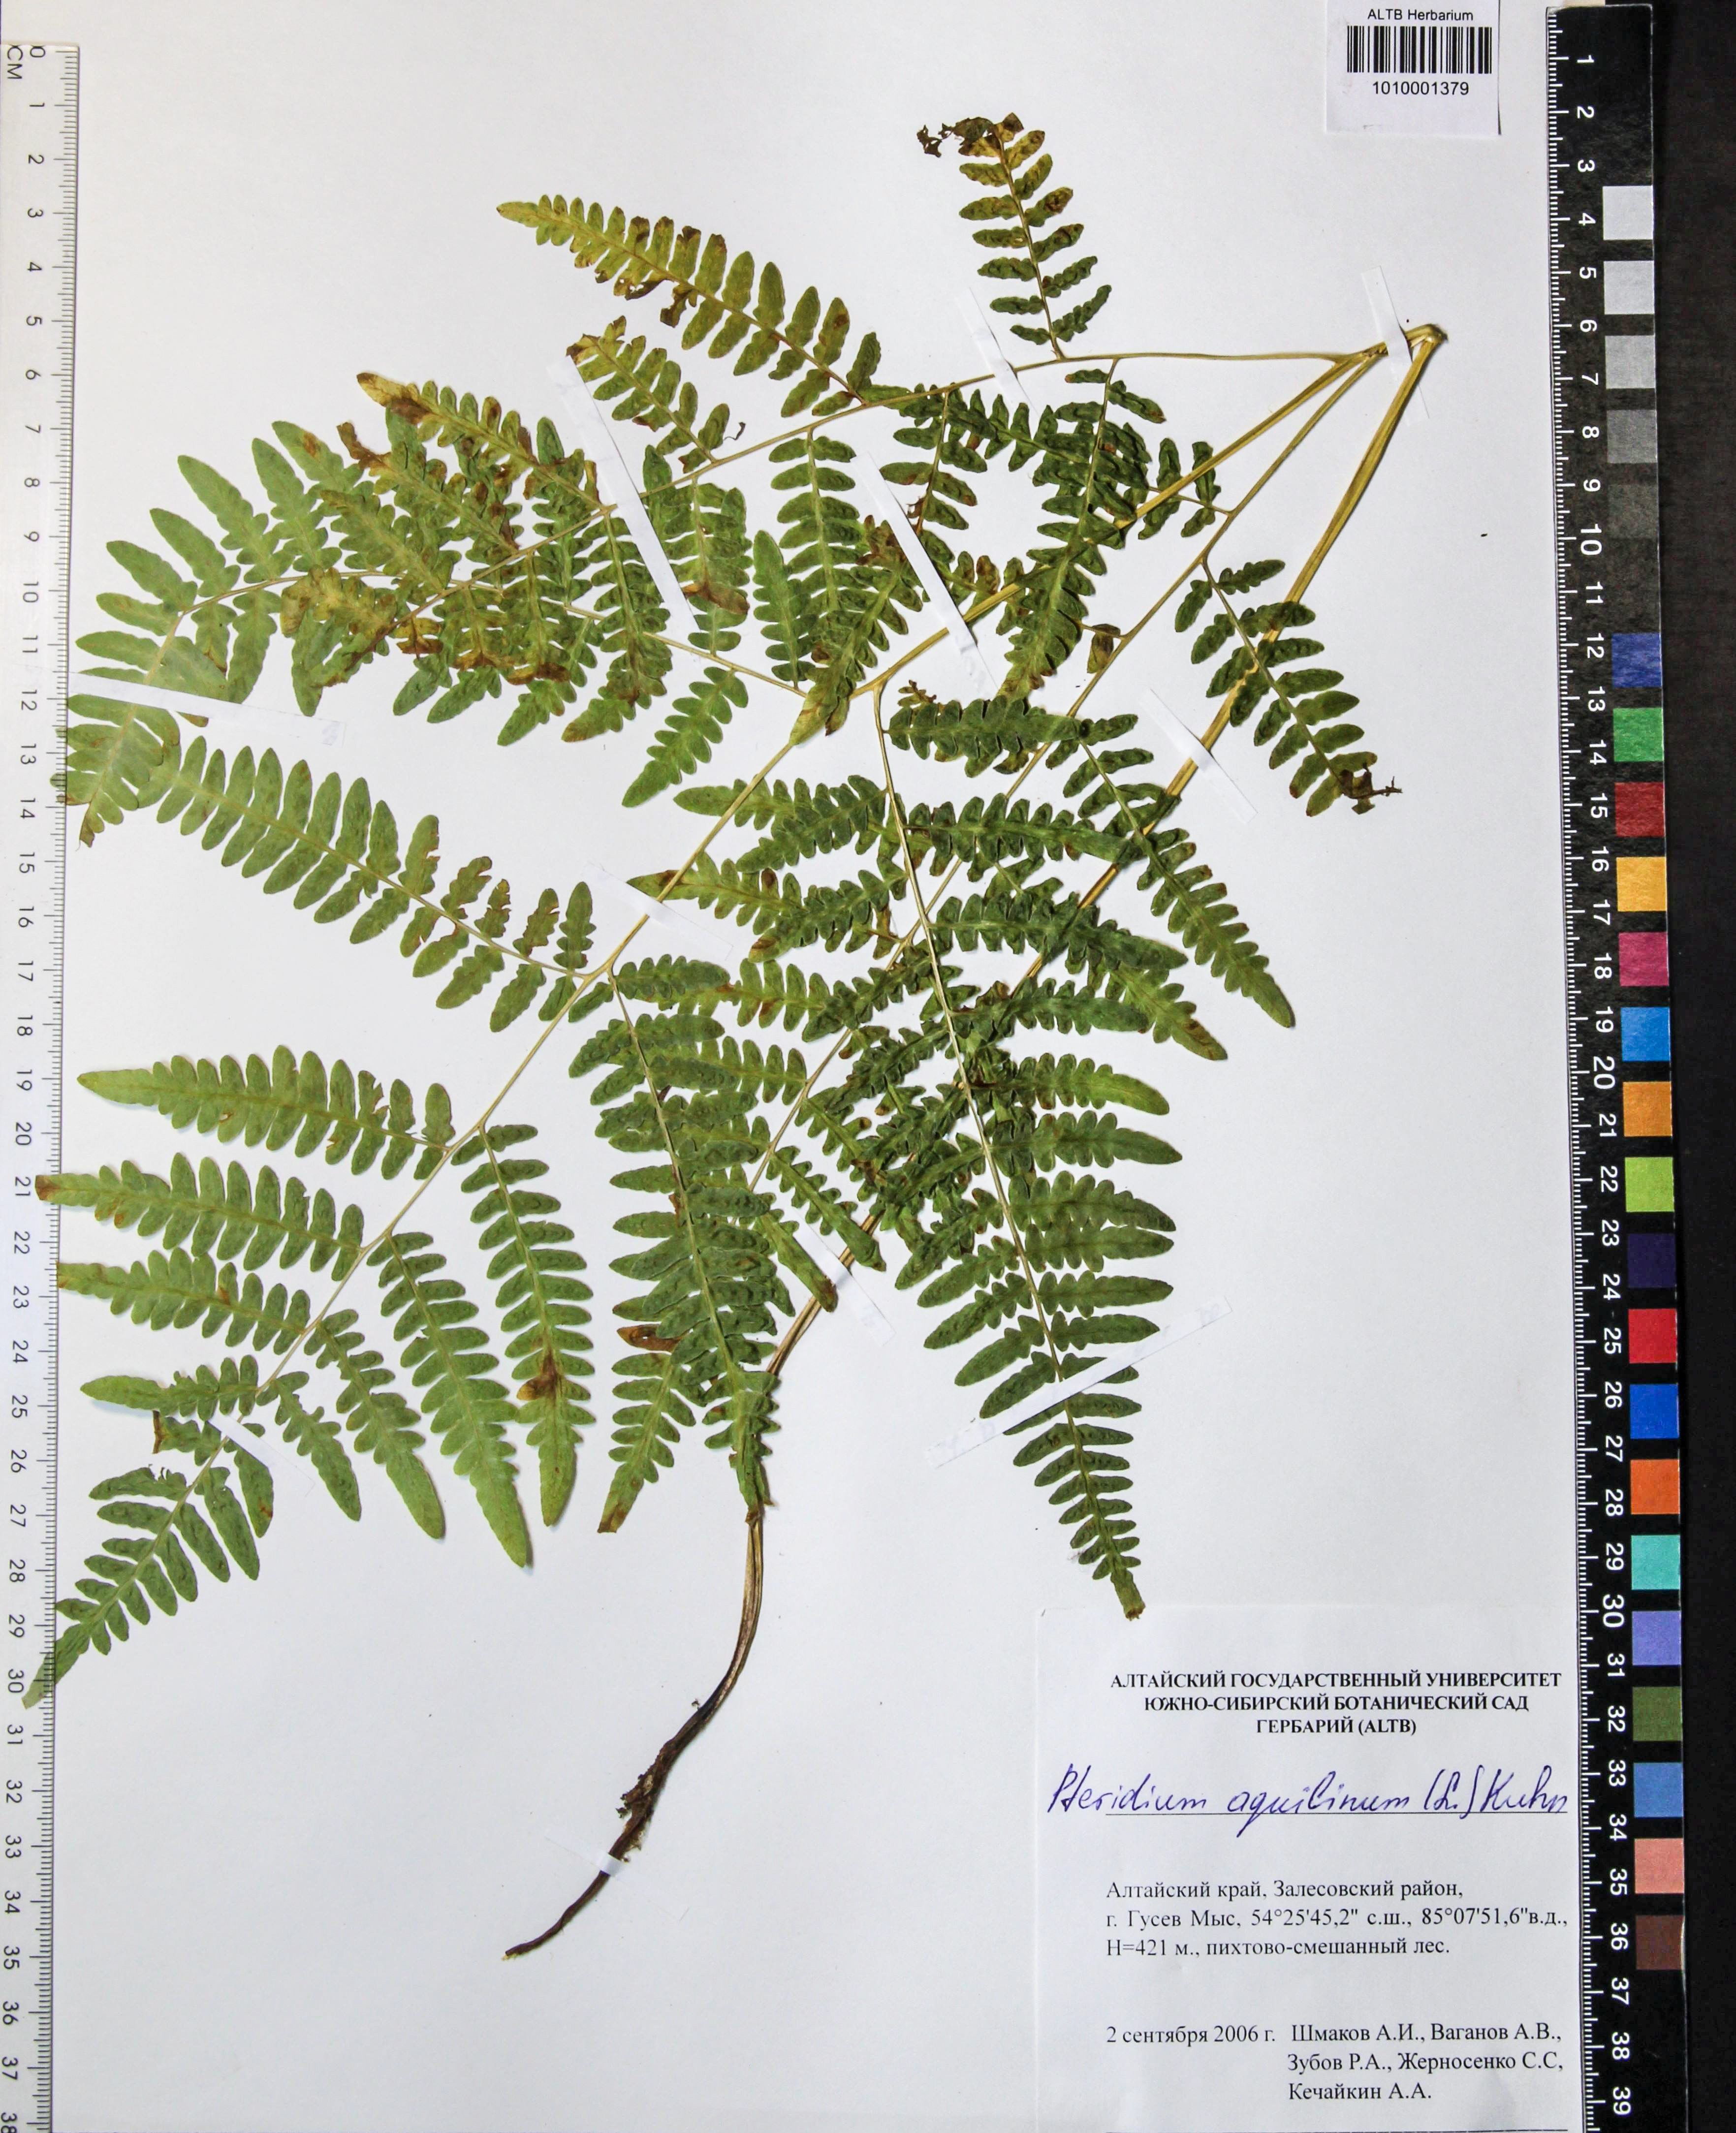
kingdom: Plantae
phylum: Tracheophyta
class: Polypodiopsida
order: Polypodiales
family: Dennstaedtiaceae
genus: Pteridium
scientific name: Pteridium aquilinum
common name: Bracken
